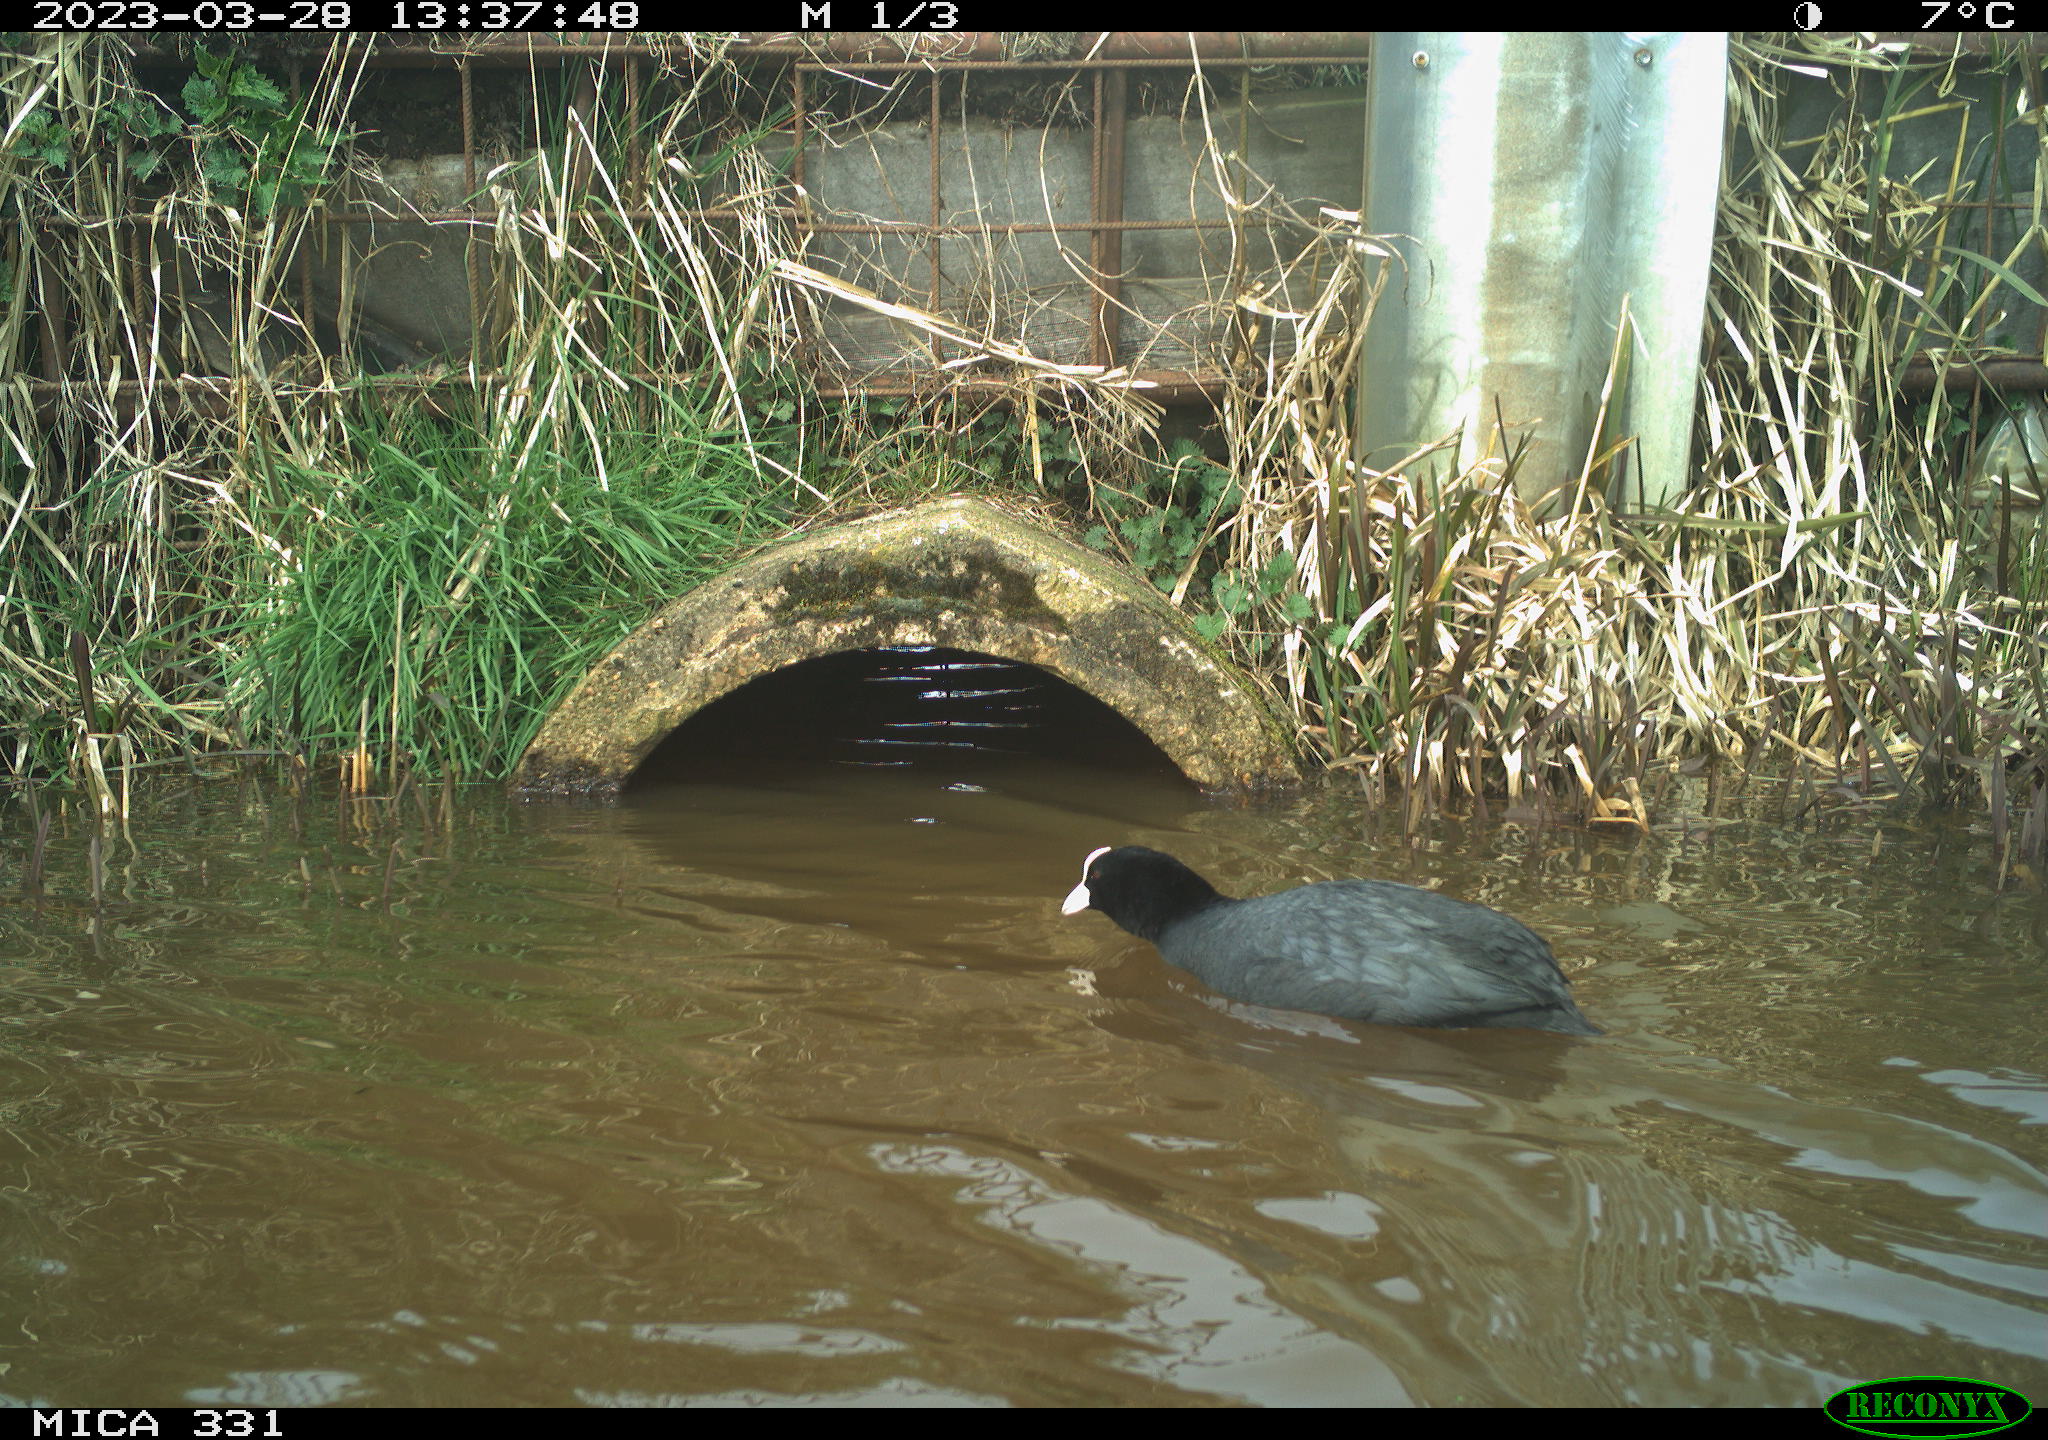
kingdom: Animalia
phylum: Chordata
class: Aves
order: Gruiformes
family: Rallidae
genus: Fulica
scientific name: Fulica atra
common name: Eurasian coot
